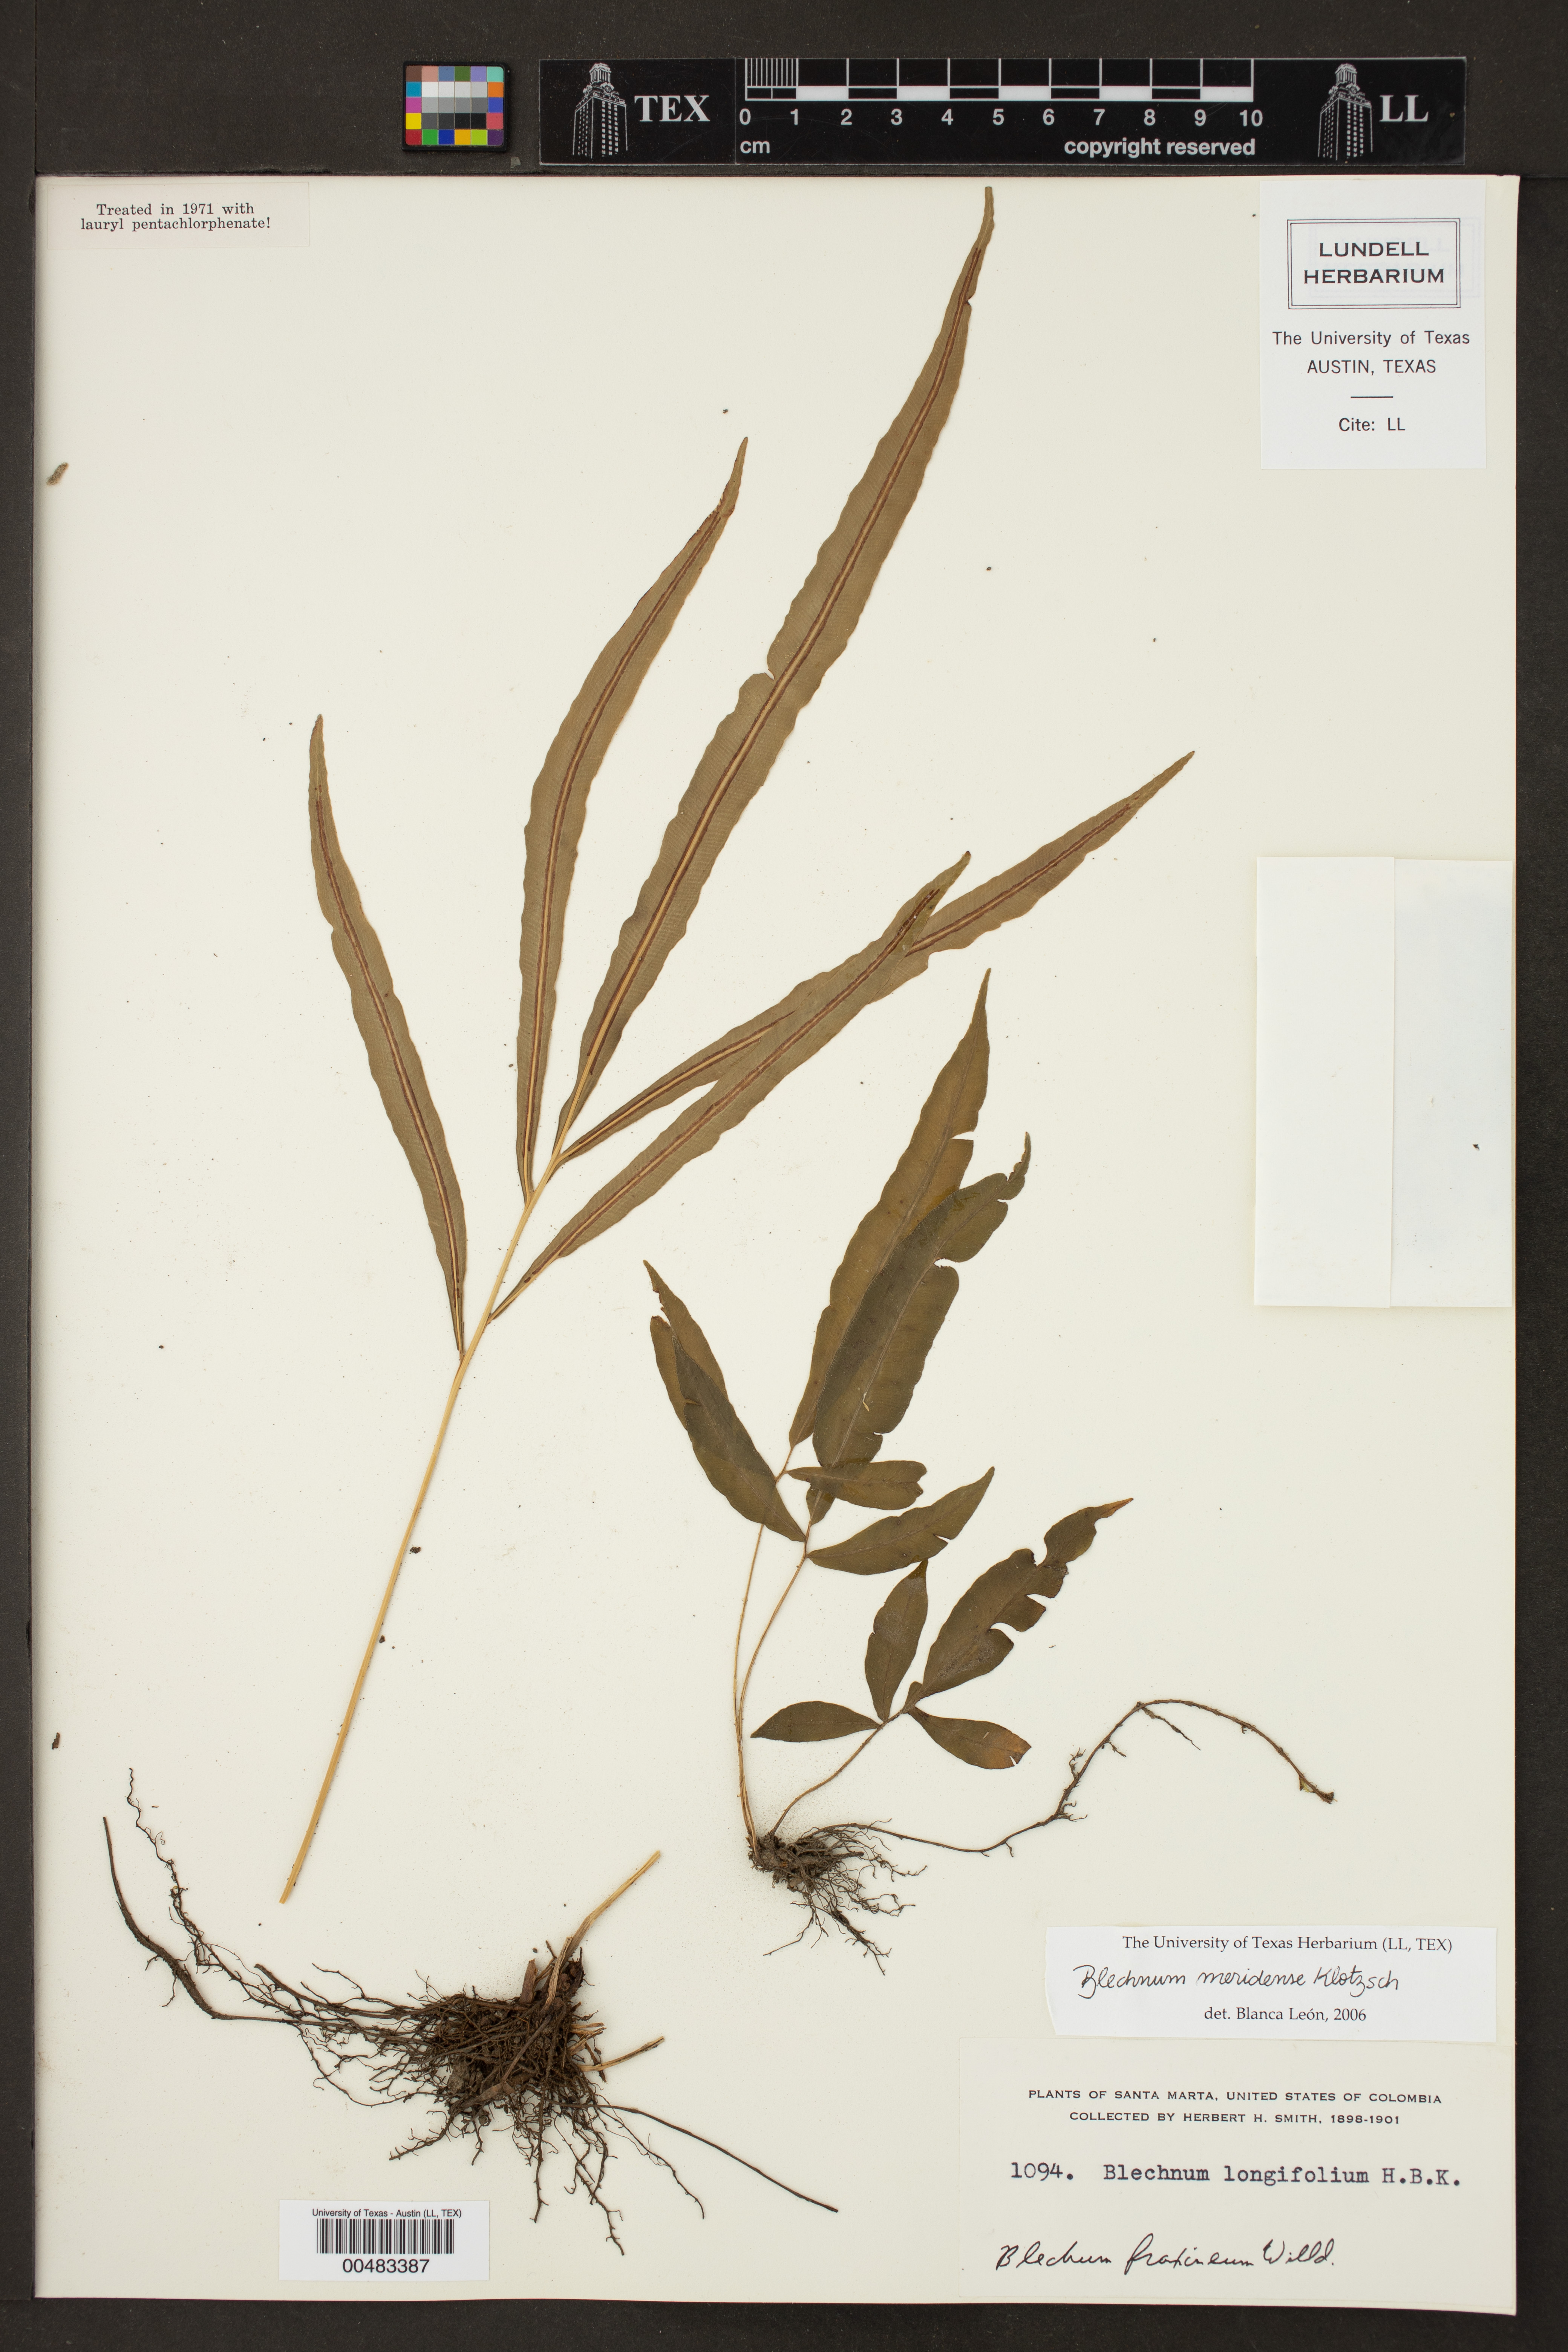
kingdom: Plantae
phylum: Tracheophyta
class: Polypodiopsida
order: Polypodiales
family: Blechnaceae
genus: Blechnum
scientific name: Blechnum meridense
